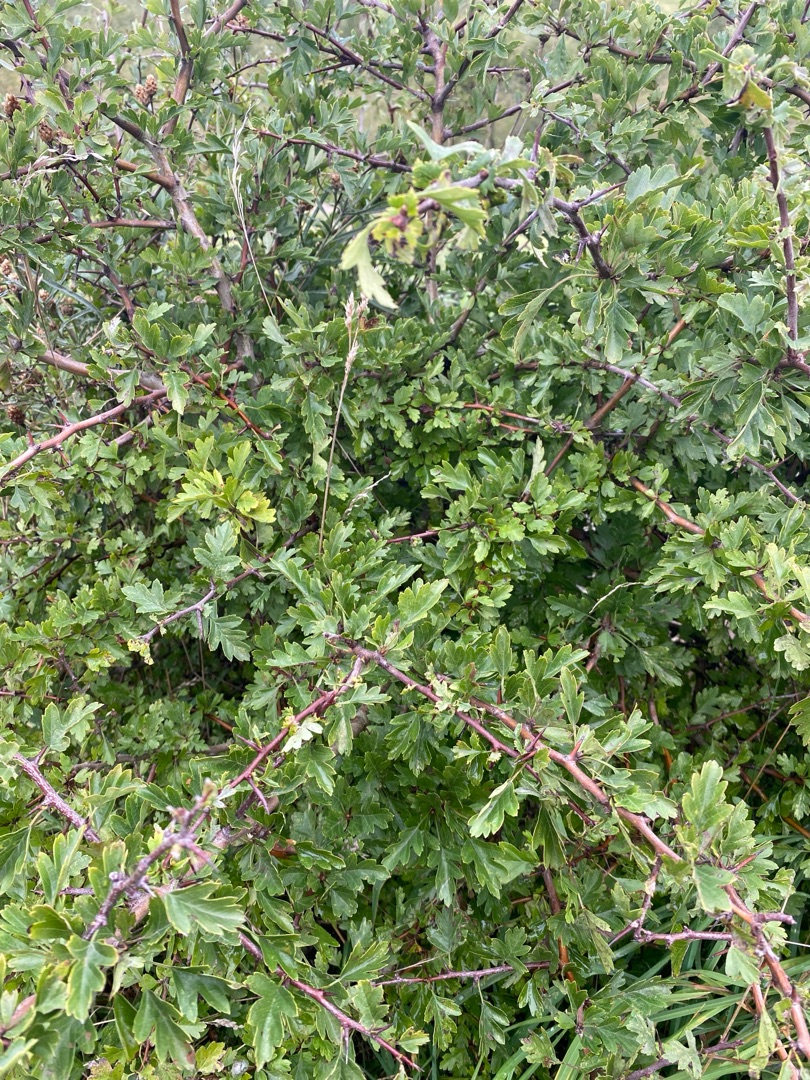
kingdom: Plantae
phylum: Tracheophyta
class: Magnoliopsida
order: Rosales
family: Rosaceae
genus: Crataegus
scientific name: Crataegus monogyna
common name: Engriflet hvidtjørn
